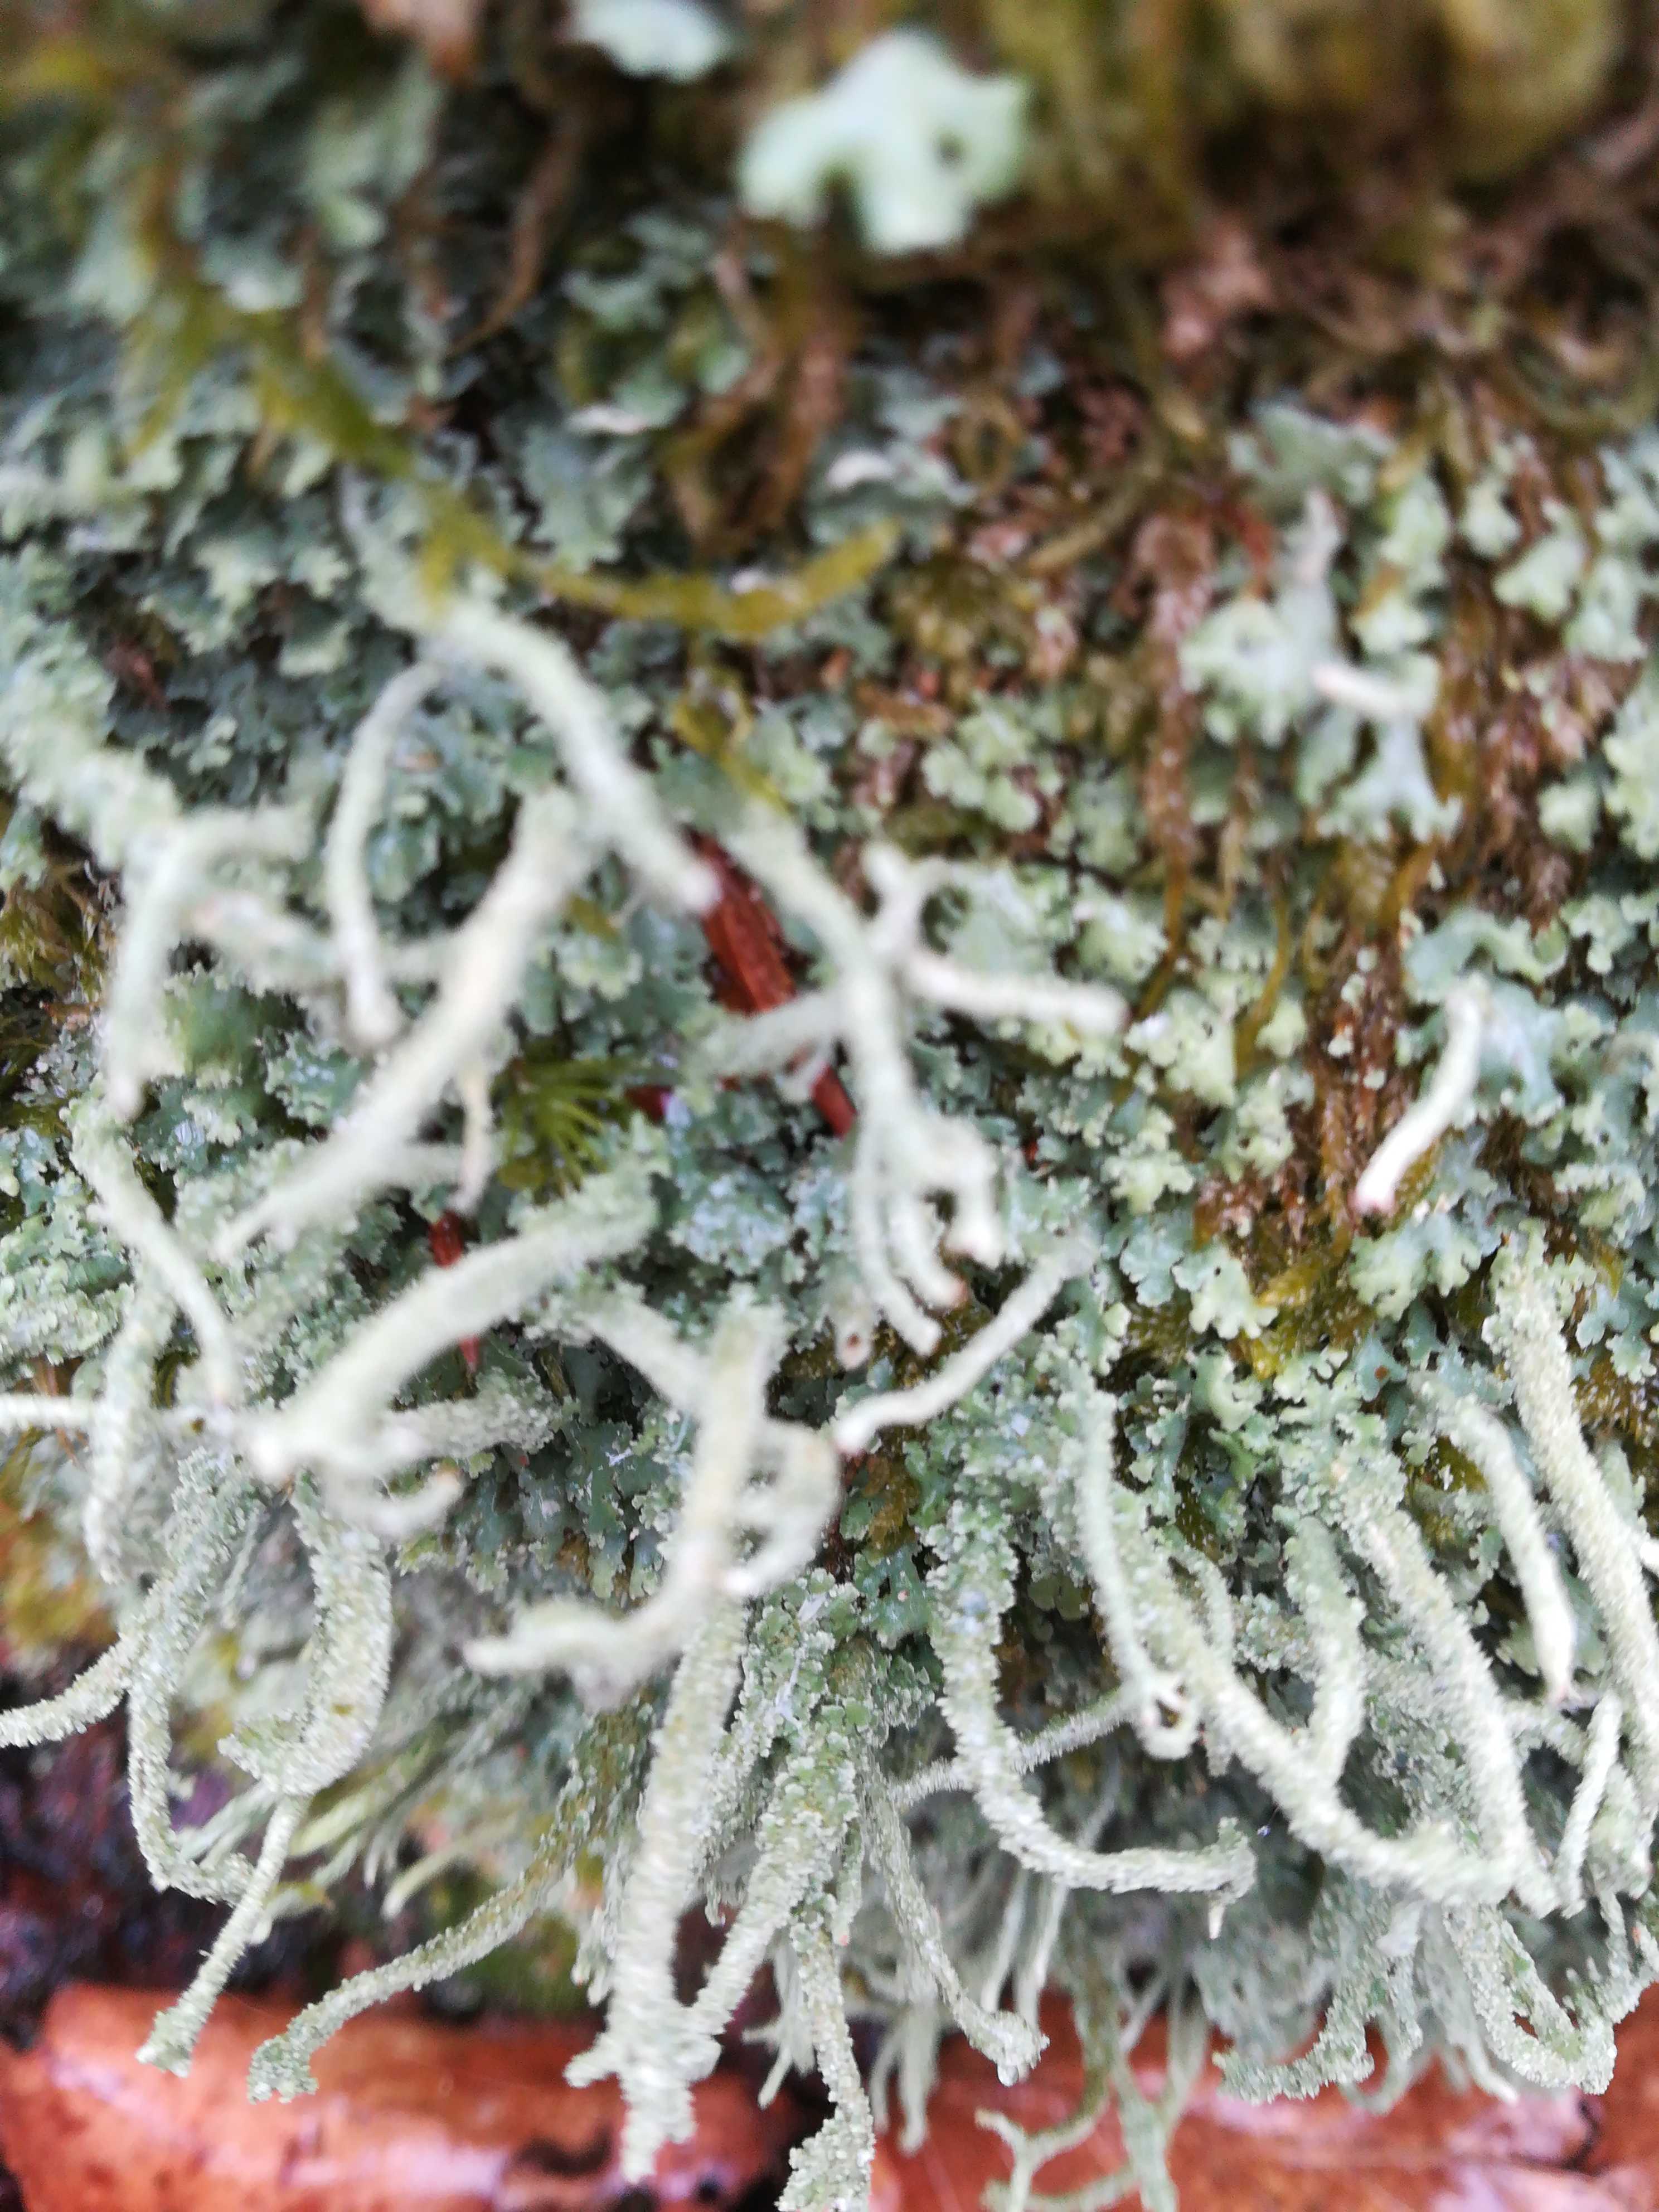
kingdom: Fungi
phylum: Ascomycota
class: Lecanoromycetes
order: Lecanorales
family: Cladoniaceae
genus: Cladonia
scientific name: Cladonia polydactyla
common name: vifte-bægerlav
